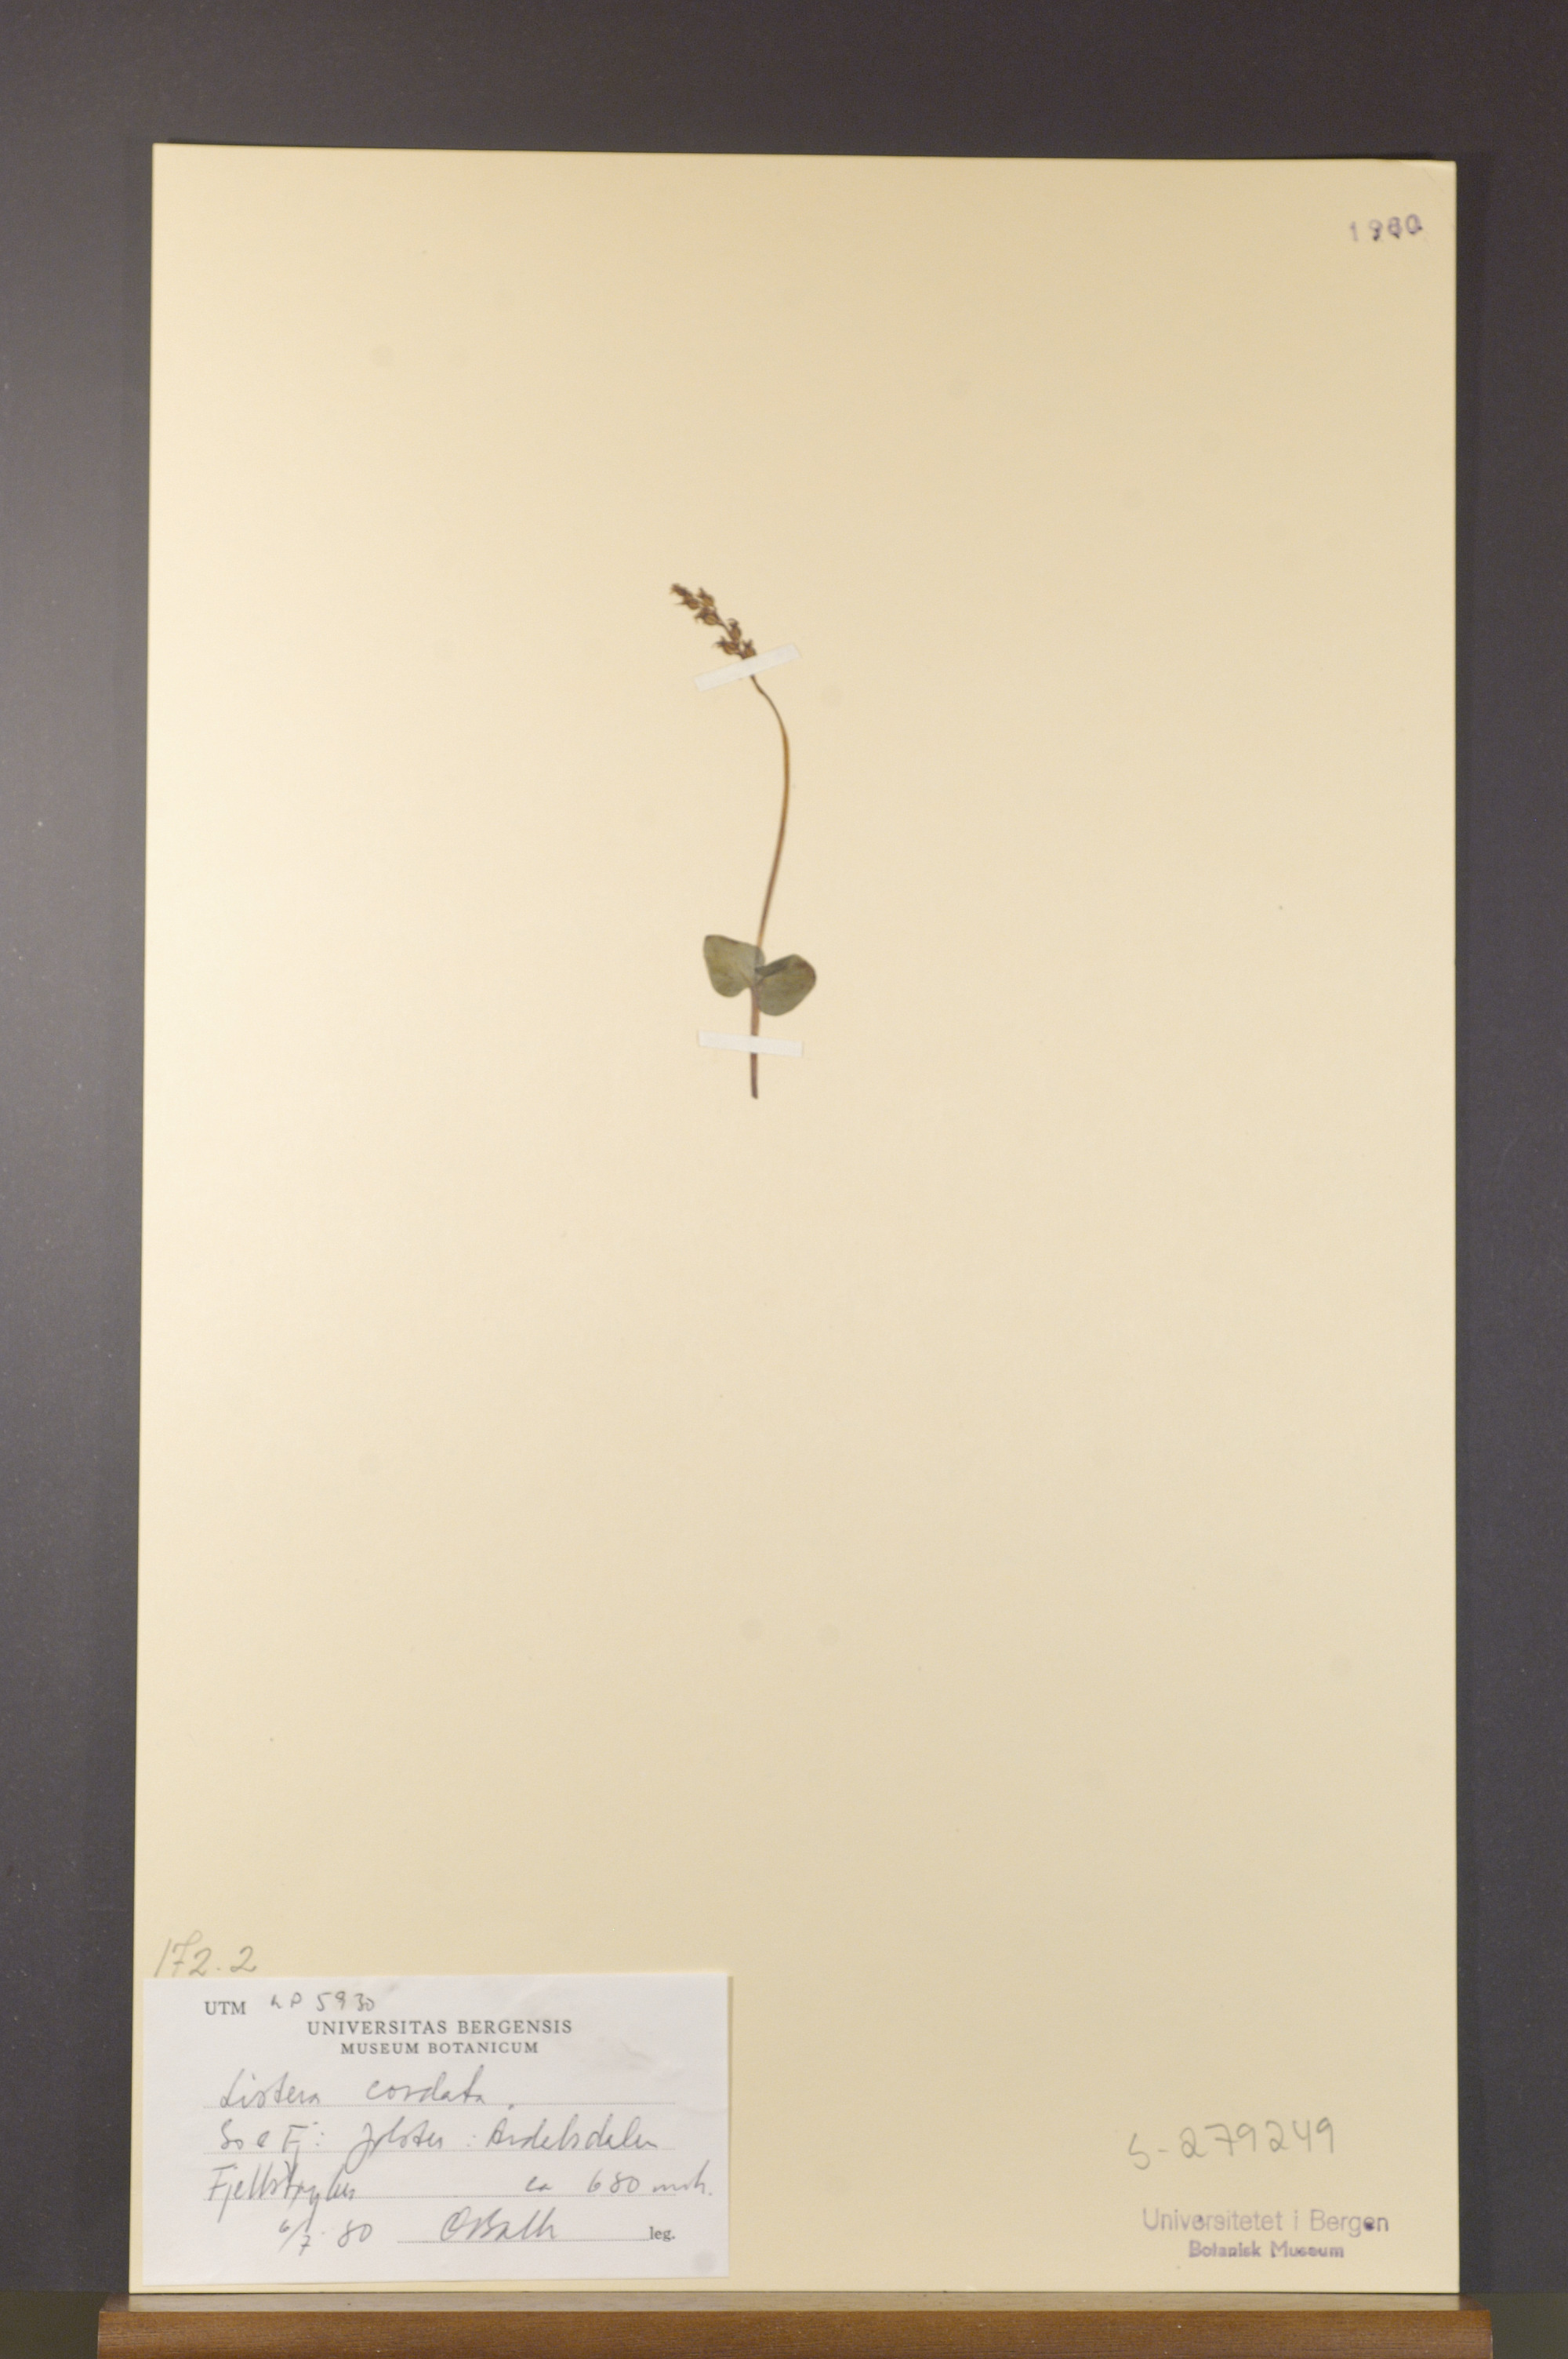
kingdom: Plantae
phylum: Tracheophyta
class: Liliopsida
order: Asparagales
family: Orchidaceae
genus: Neottia
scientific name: Neottia cordata
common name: Lesser twayblade
